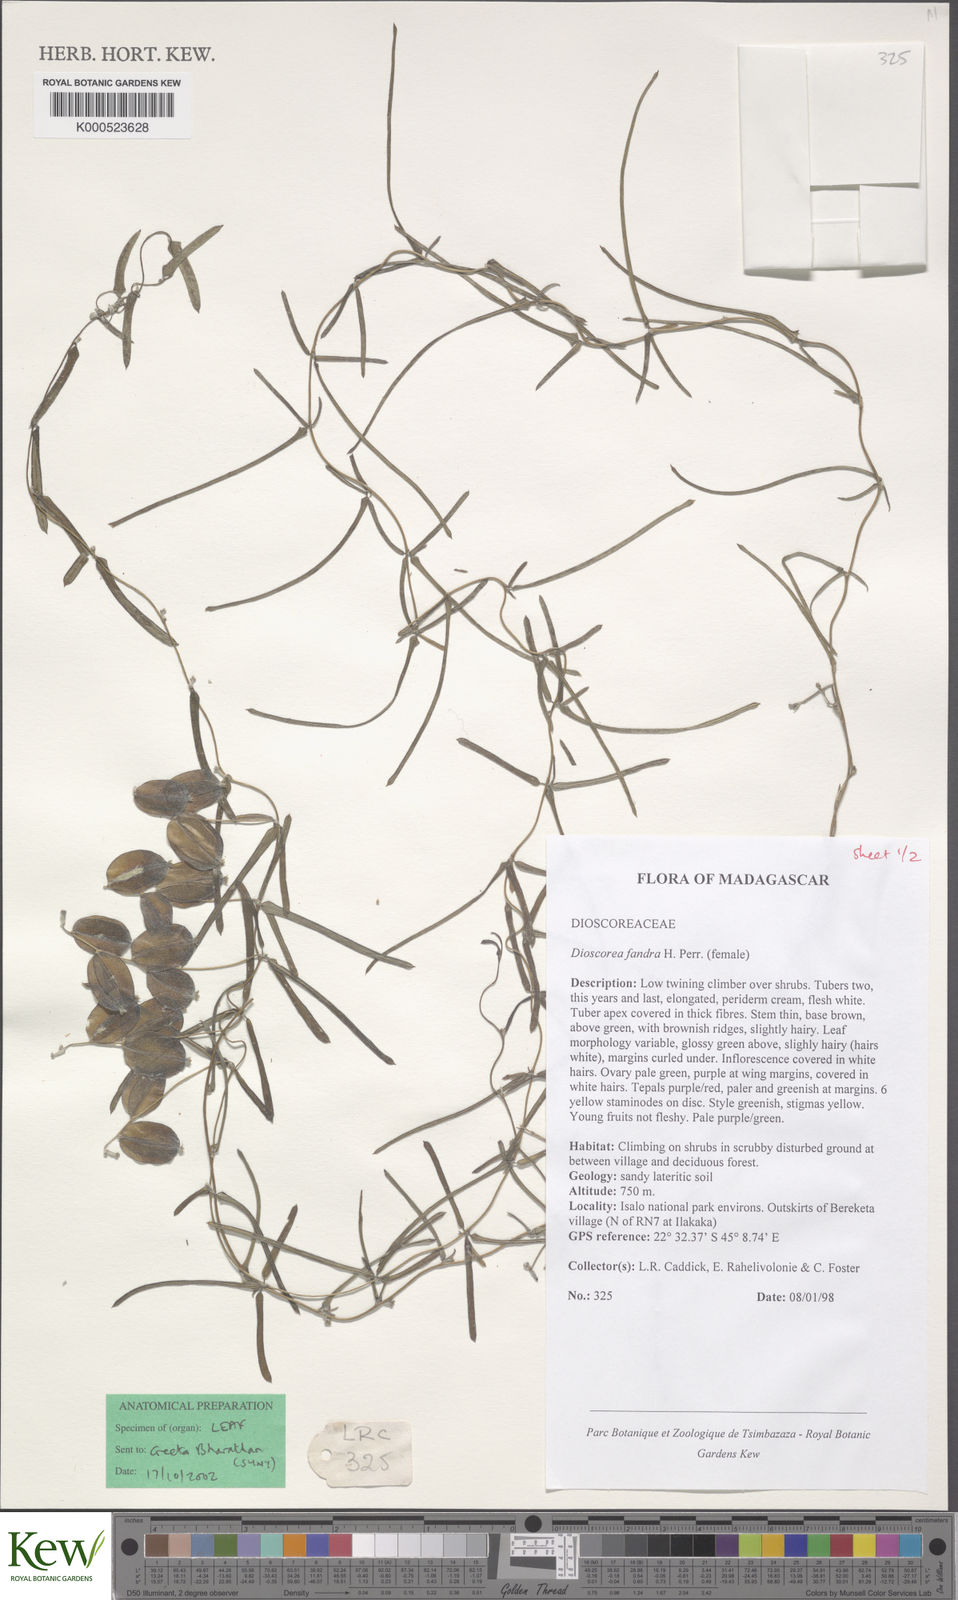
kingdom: Plantae
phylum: Tracheophyta
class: Liliopsida
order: Dioscoreales
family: Dioscoreaceae
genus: Dioscorea
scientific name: Dioscorea fandra
